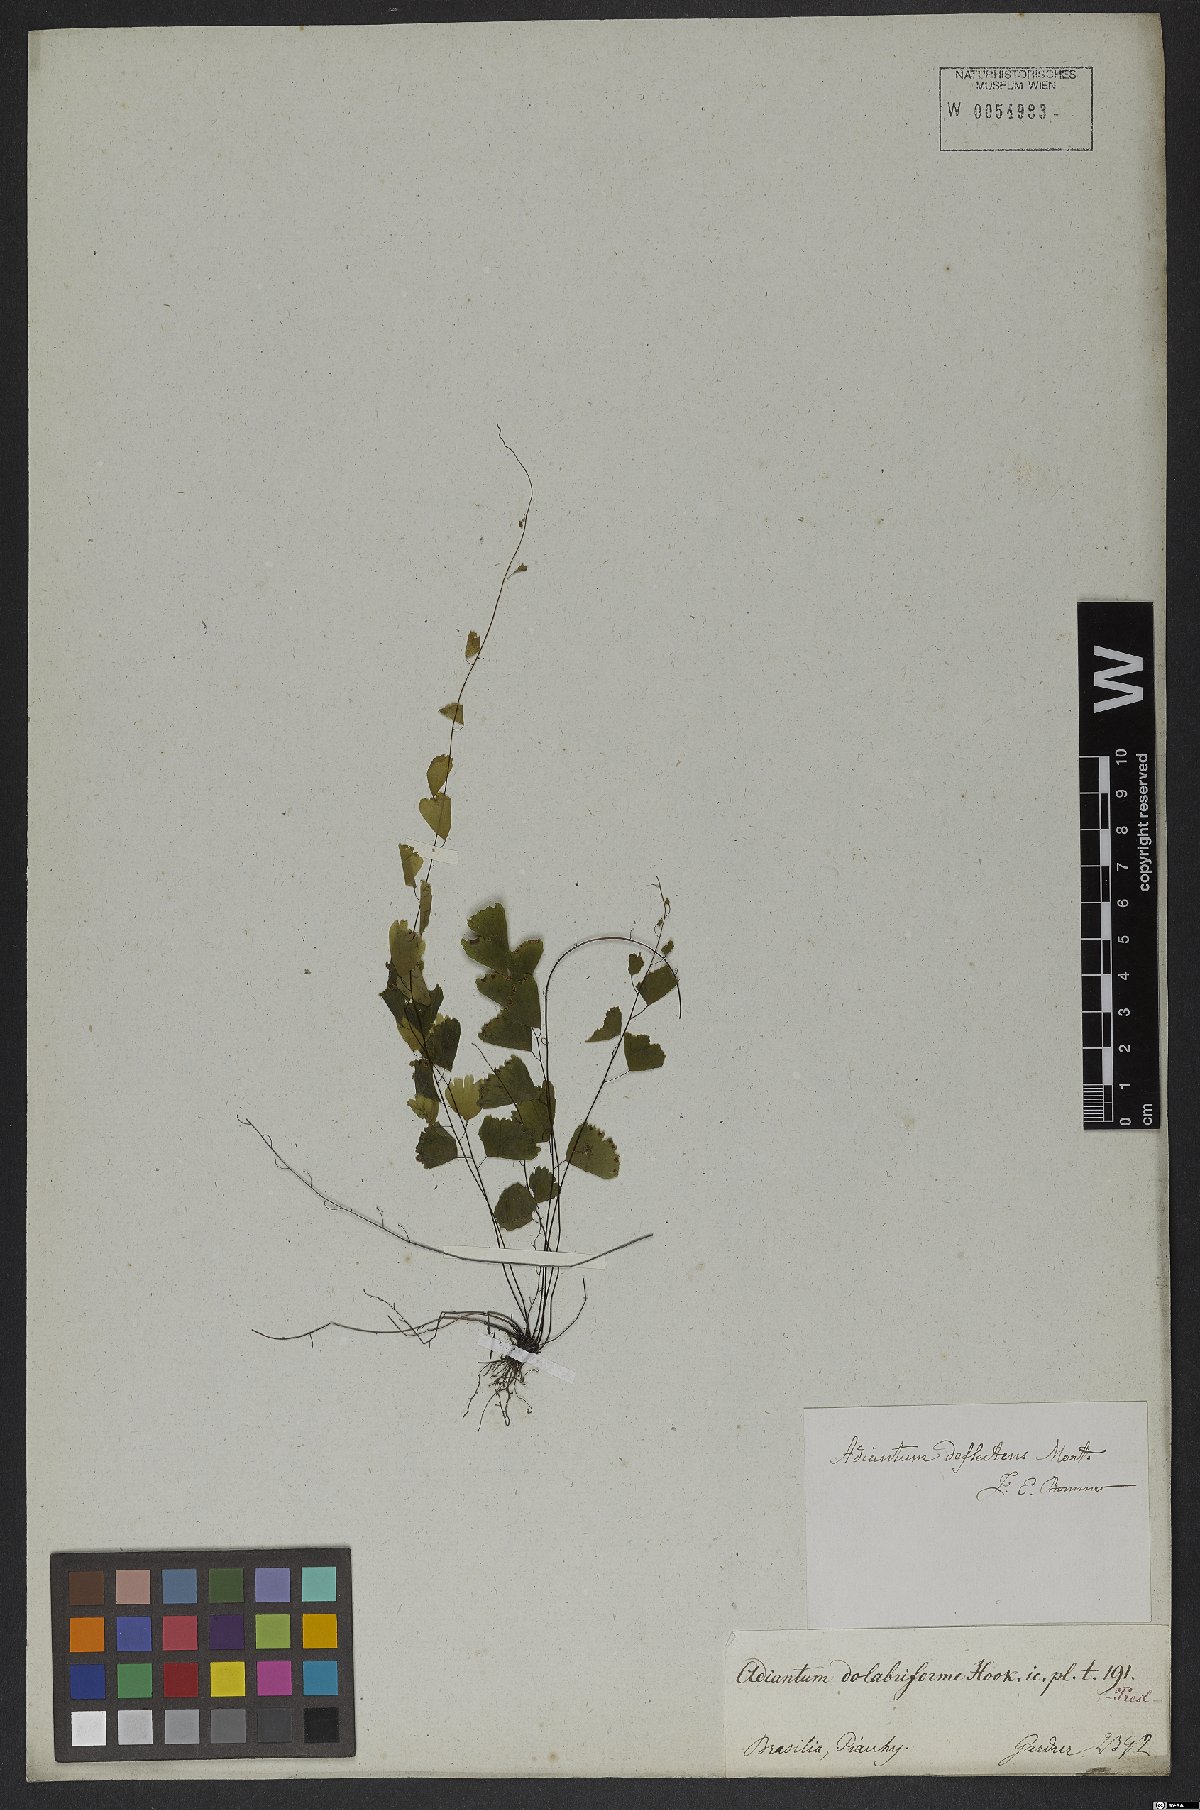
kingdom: Plantae
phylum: Tracheophyta
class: Polypodiopsida
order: Polypodiales
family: Pteridaceae
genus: Adiantum
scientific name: Adiantum deflectens
